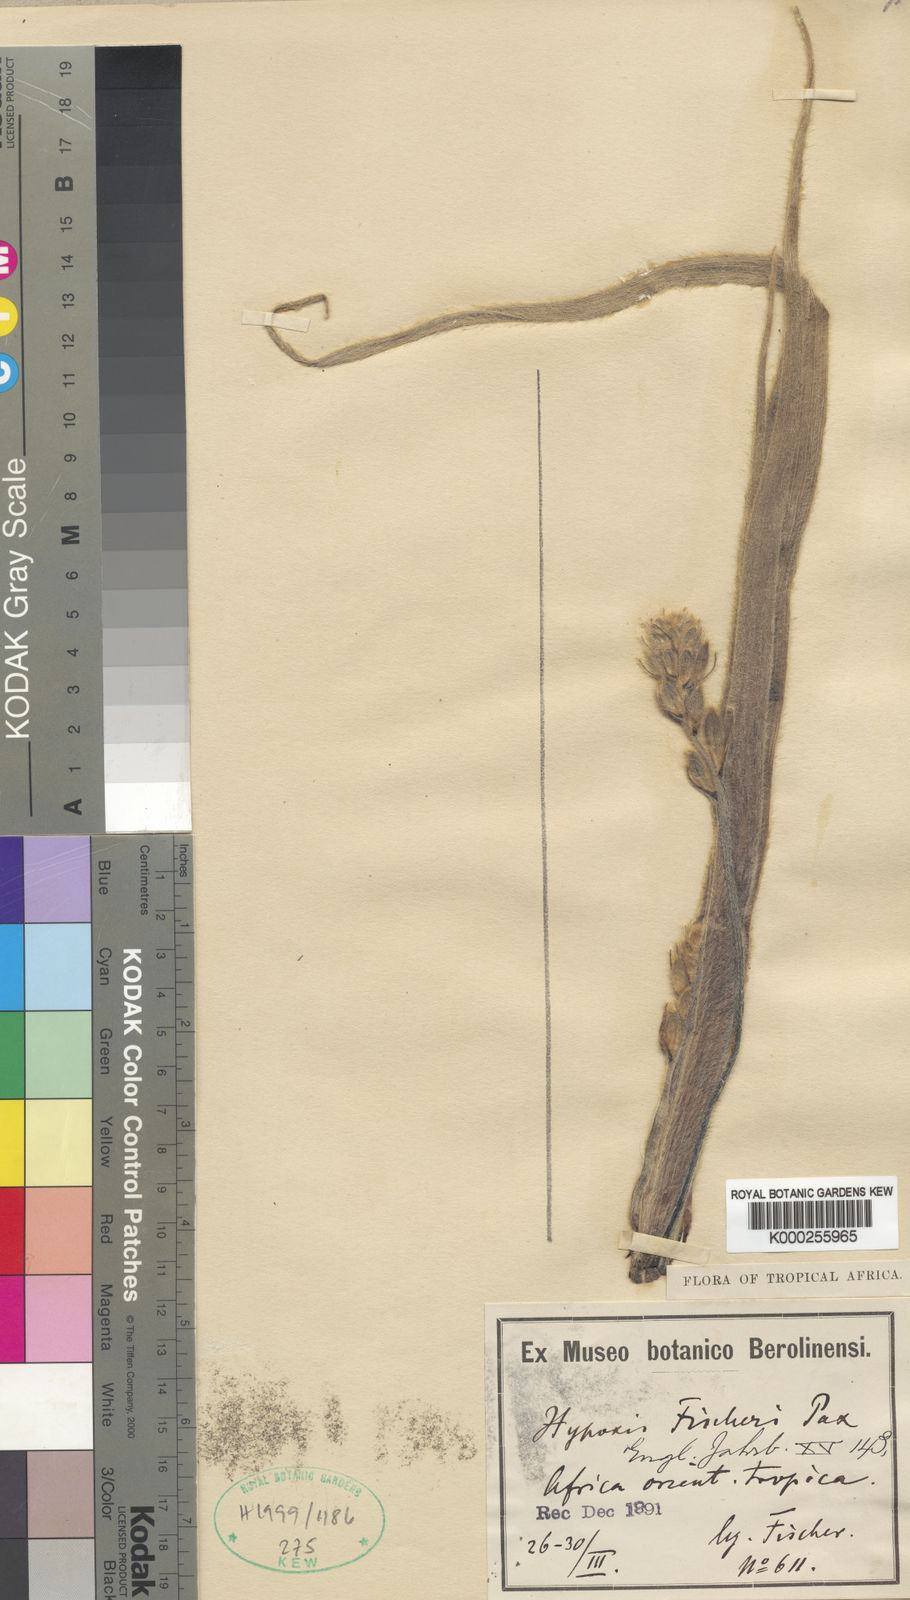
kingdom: Plantae
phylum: Tracheophyta
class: Liliopsida
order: Asparagales
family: Hypoxidaceae
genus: Hypoxis
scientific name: Hypoxis fischeri
